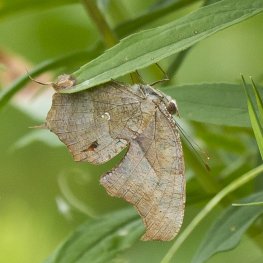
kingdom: Animalia
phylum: Arthropoda
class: Insecta
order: Lepidoptera
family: Nymphalidae
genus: Polygonia
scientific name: Polygonia interrogationis
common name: Question Mark
